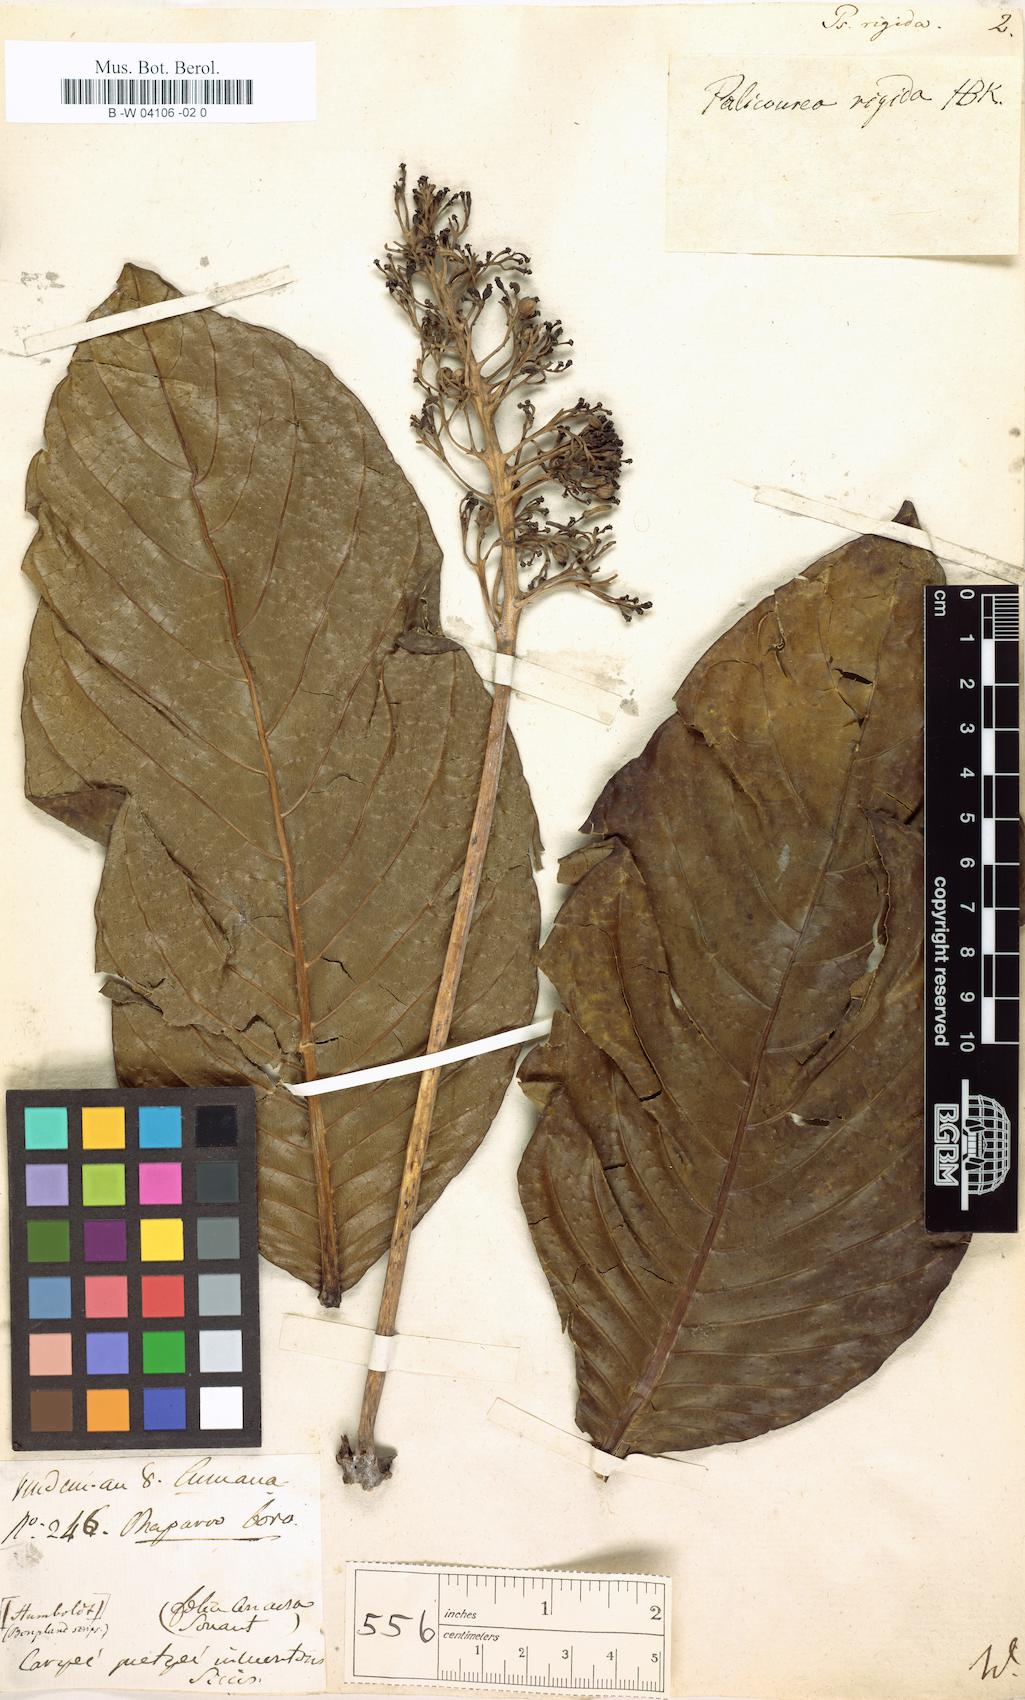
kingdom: Plantae
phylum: Tracheophyta
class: Magnoliopsida
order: Gentianales
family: Rubiaceae
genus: Palicourea
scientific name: Palicourea rigida
